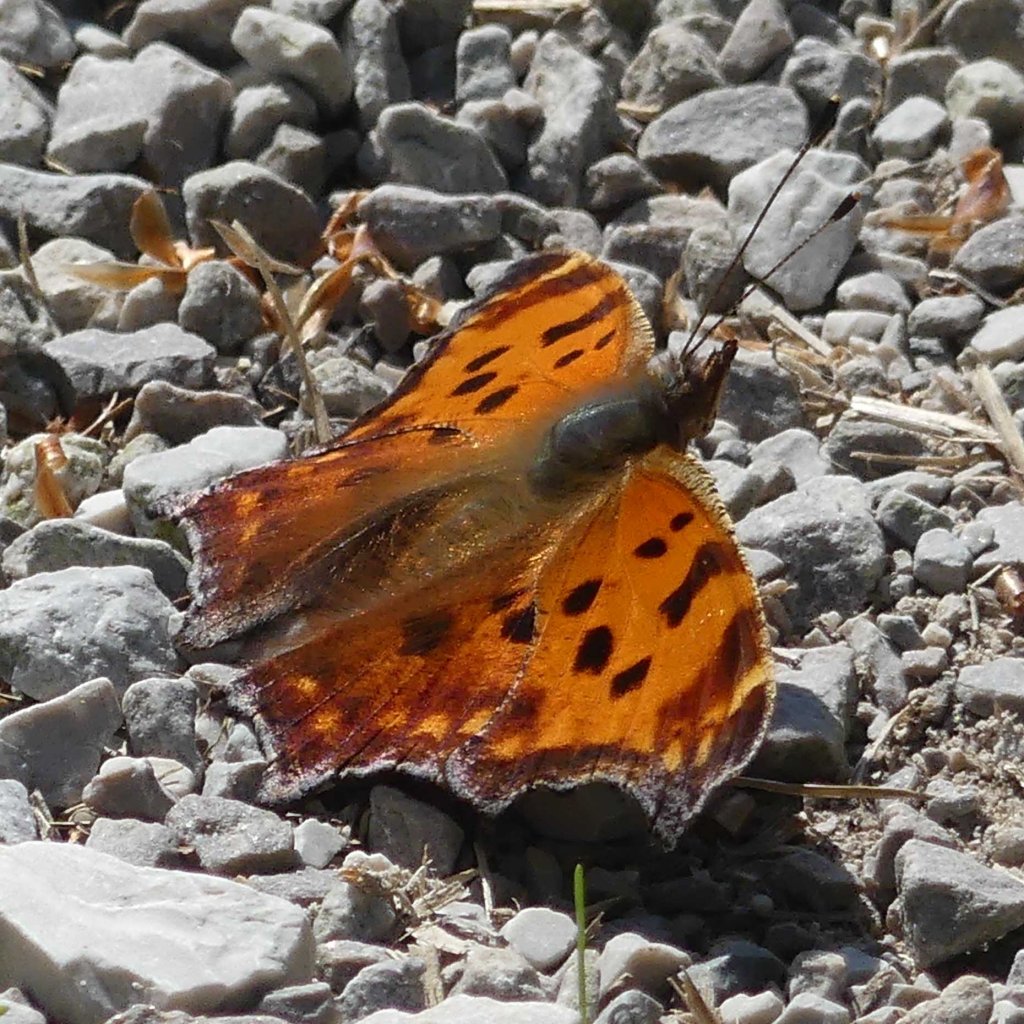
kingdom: Animalia
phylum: Arthropoda
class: Insecta
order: Lepidoptera
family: Nymphalidae
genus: Polygonia
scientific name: Polygonia comma
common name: Eastern Comma
